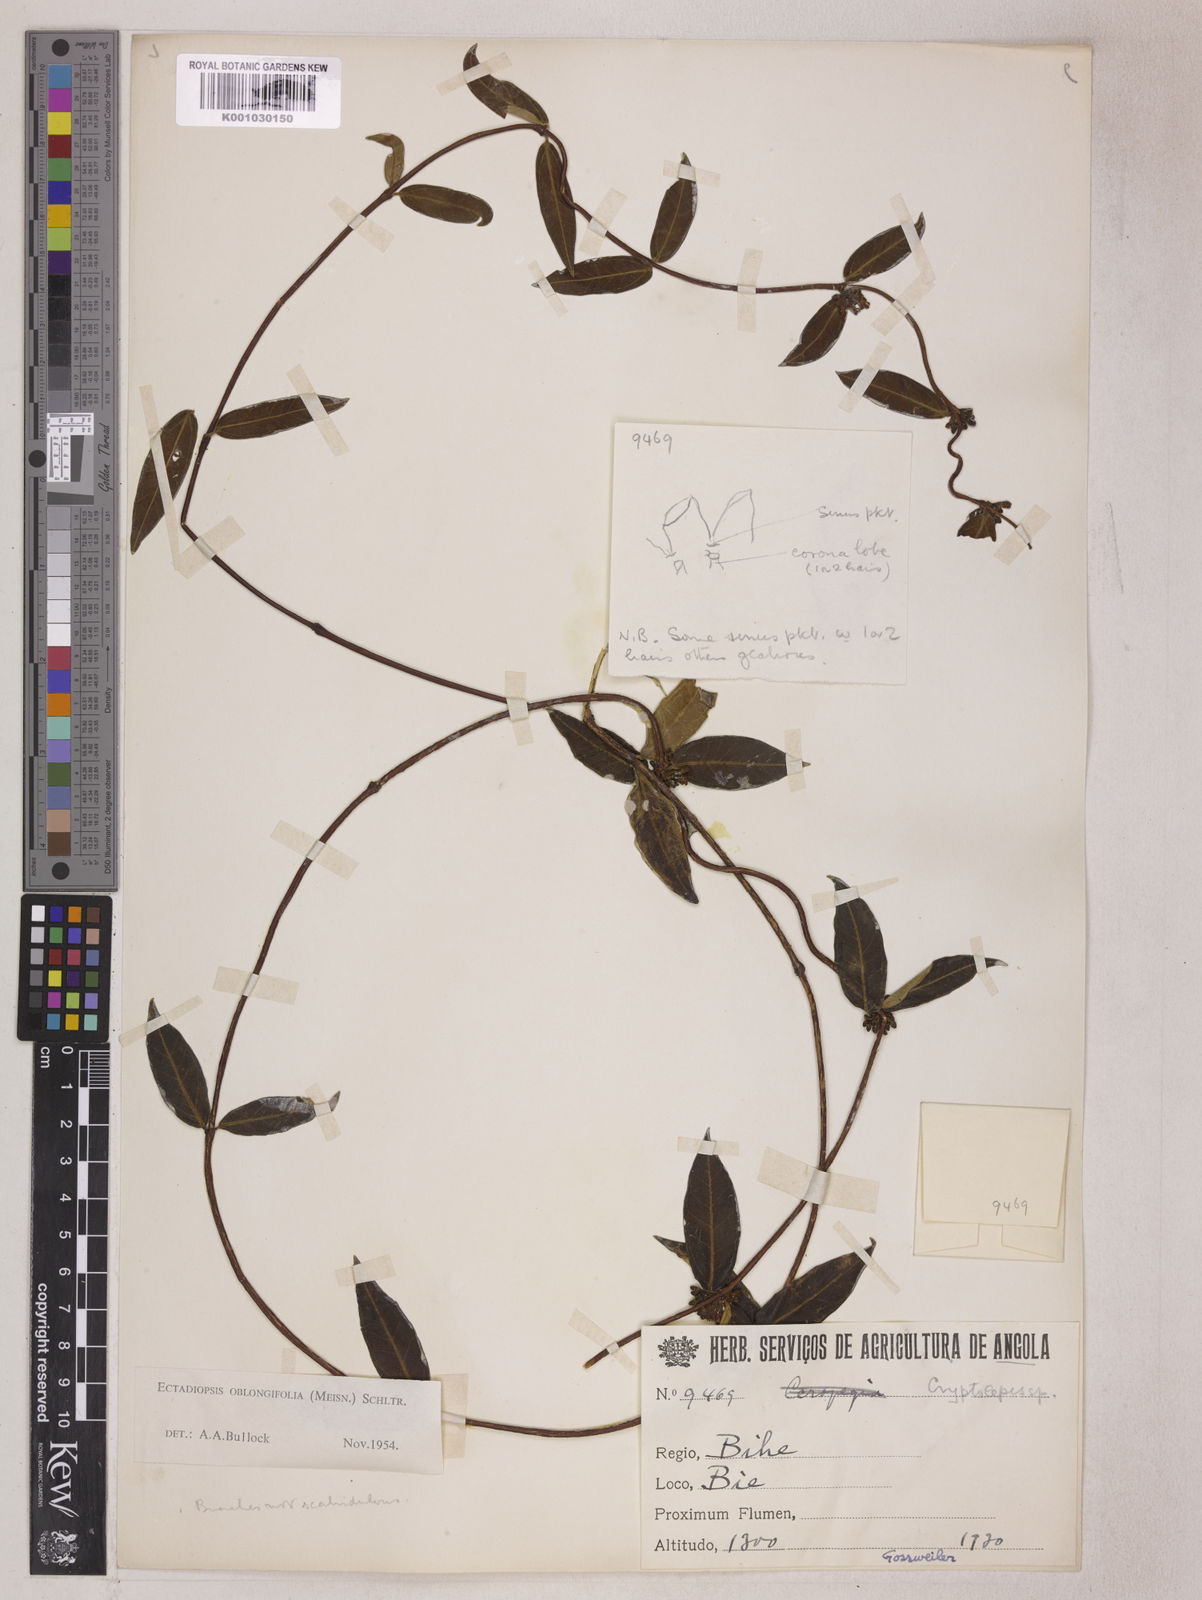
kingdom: Plantae
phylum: Tracheophyta
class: Magnoliopsida
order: Gentianales
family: Apocynaceae
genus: Cryptolepis
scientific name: Cryptolepis oblongifolia
